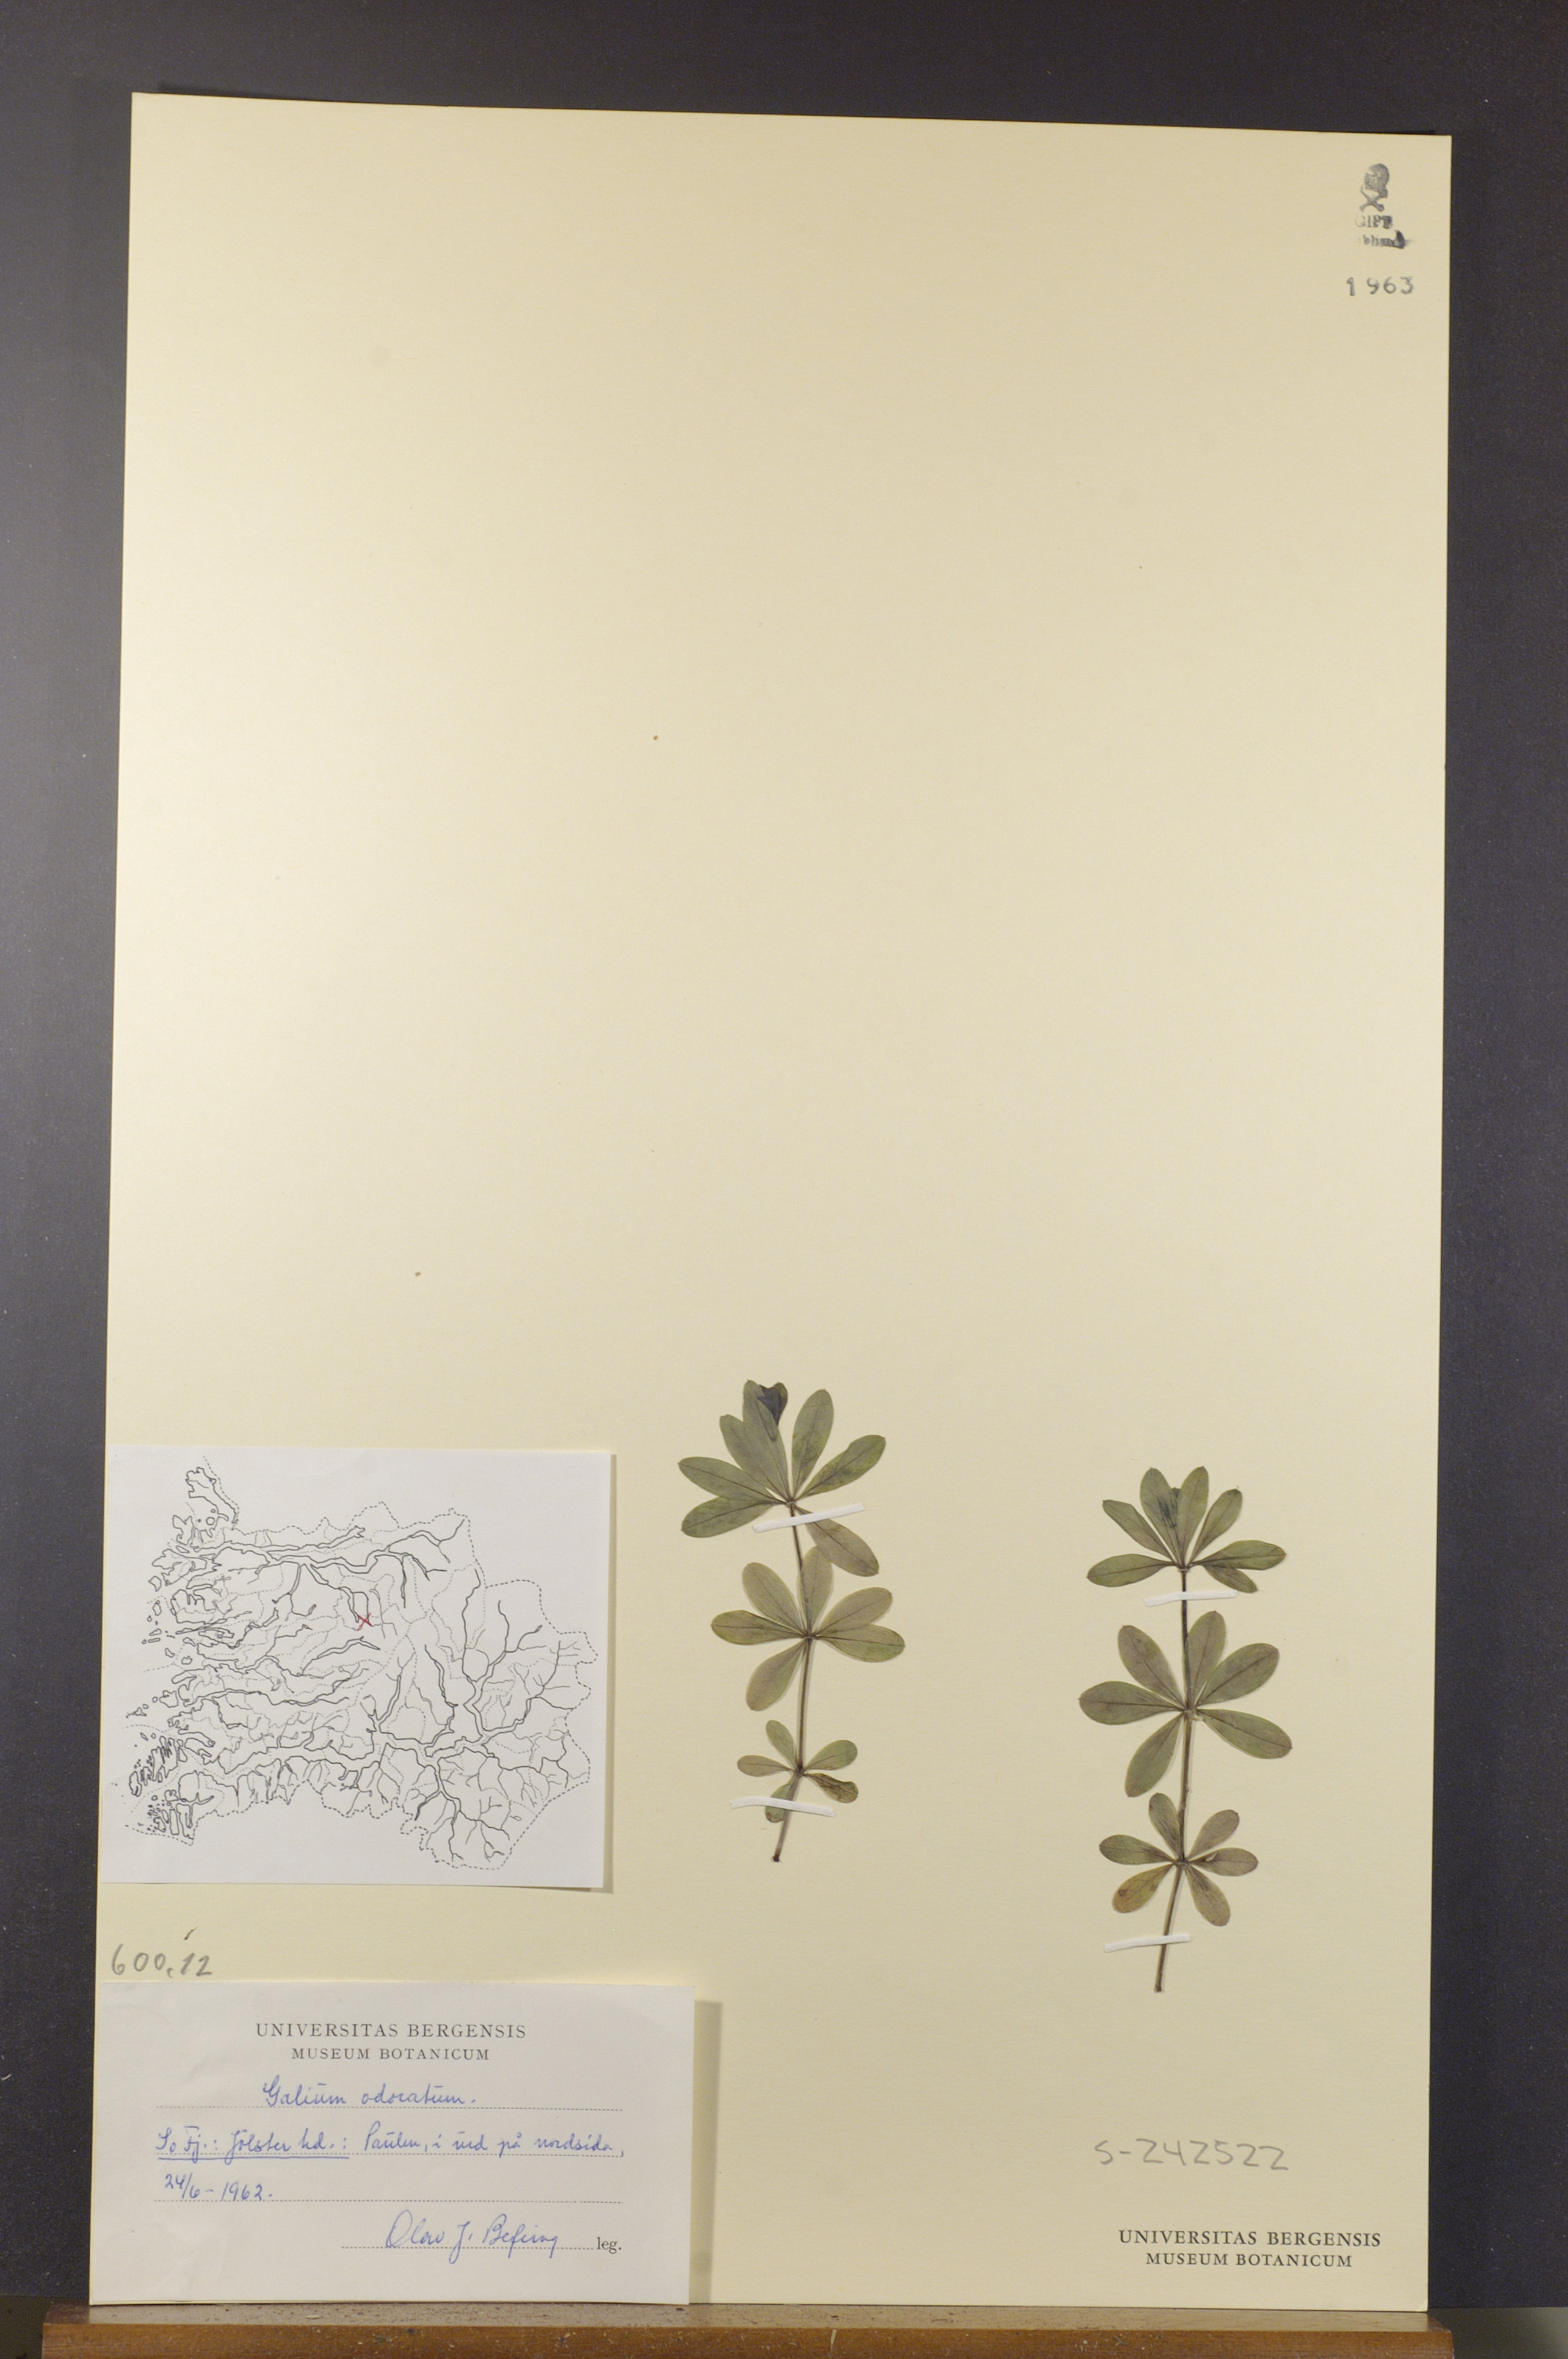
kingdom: Plantae
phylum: Tracheophyta
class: Magnoliopsida
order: Gentianales
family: Rubiaceae
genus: Galium
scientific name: Galium odoratum
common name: Sweet woodruff
